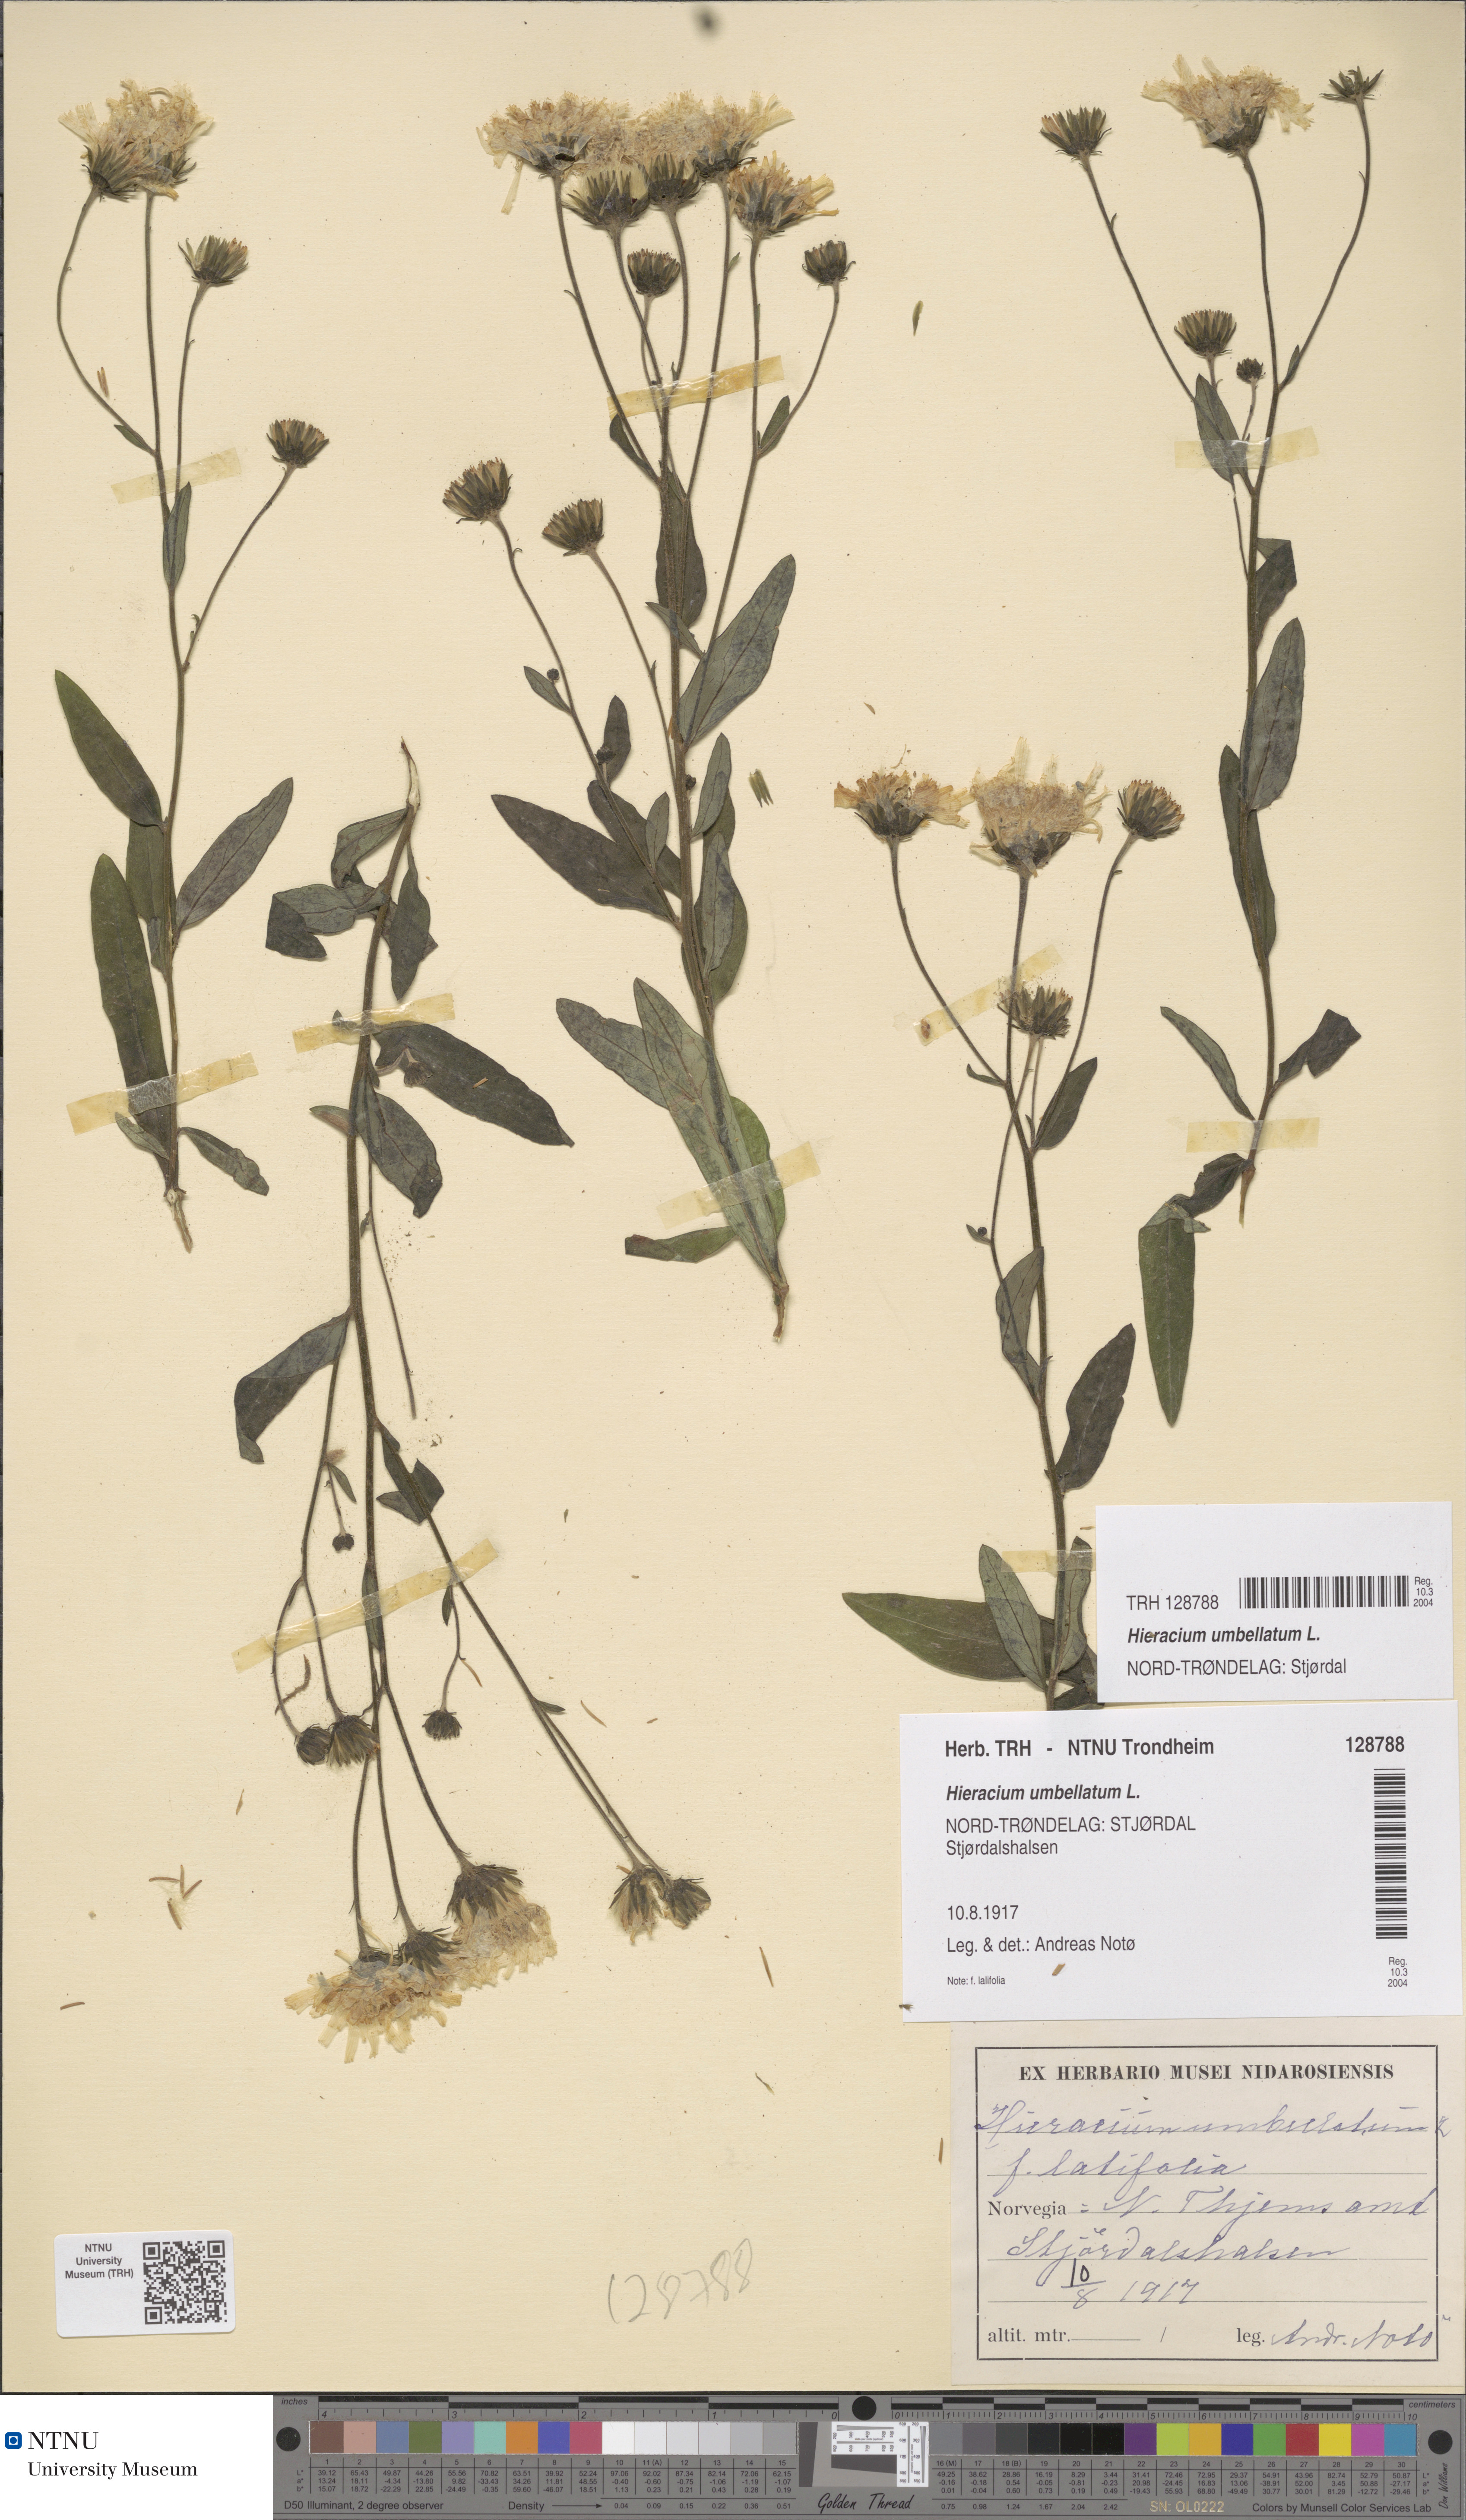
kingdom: Plantae
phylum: Tracheophyta
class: Magnoliopsida
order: Asterales
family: Asteraceae
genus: Hieracium
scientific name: Hieracium umbellatum
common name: Northern hawkweed
